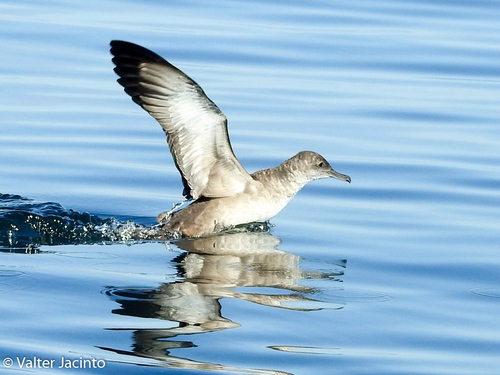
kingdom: Animalia
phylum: Chordata
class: Aves
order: Procellariiformes
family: Procellariidae
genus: Puffinus
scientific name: Puffinus mauretanicus
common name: Balearic shearwater
